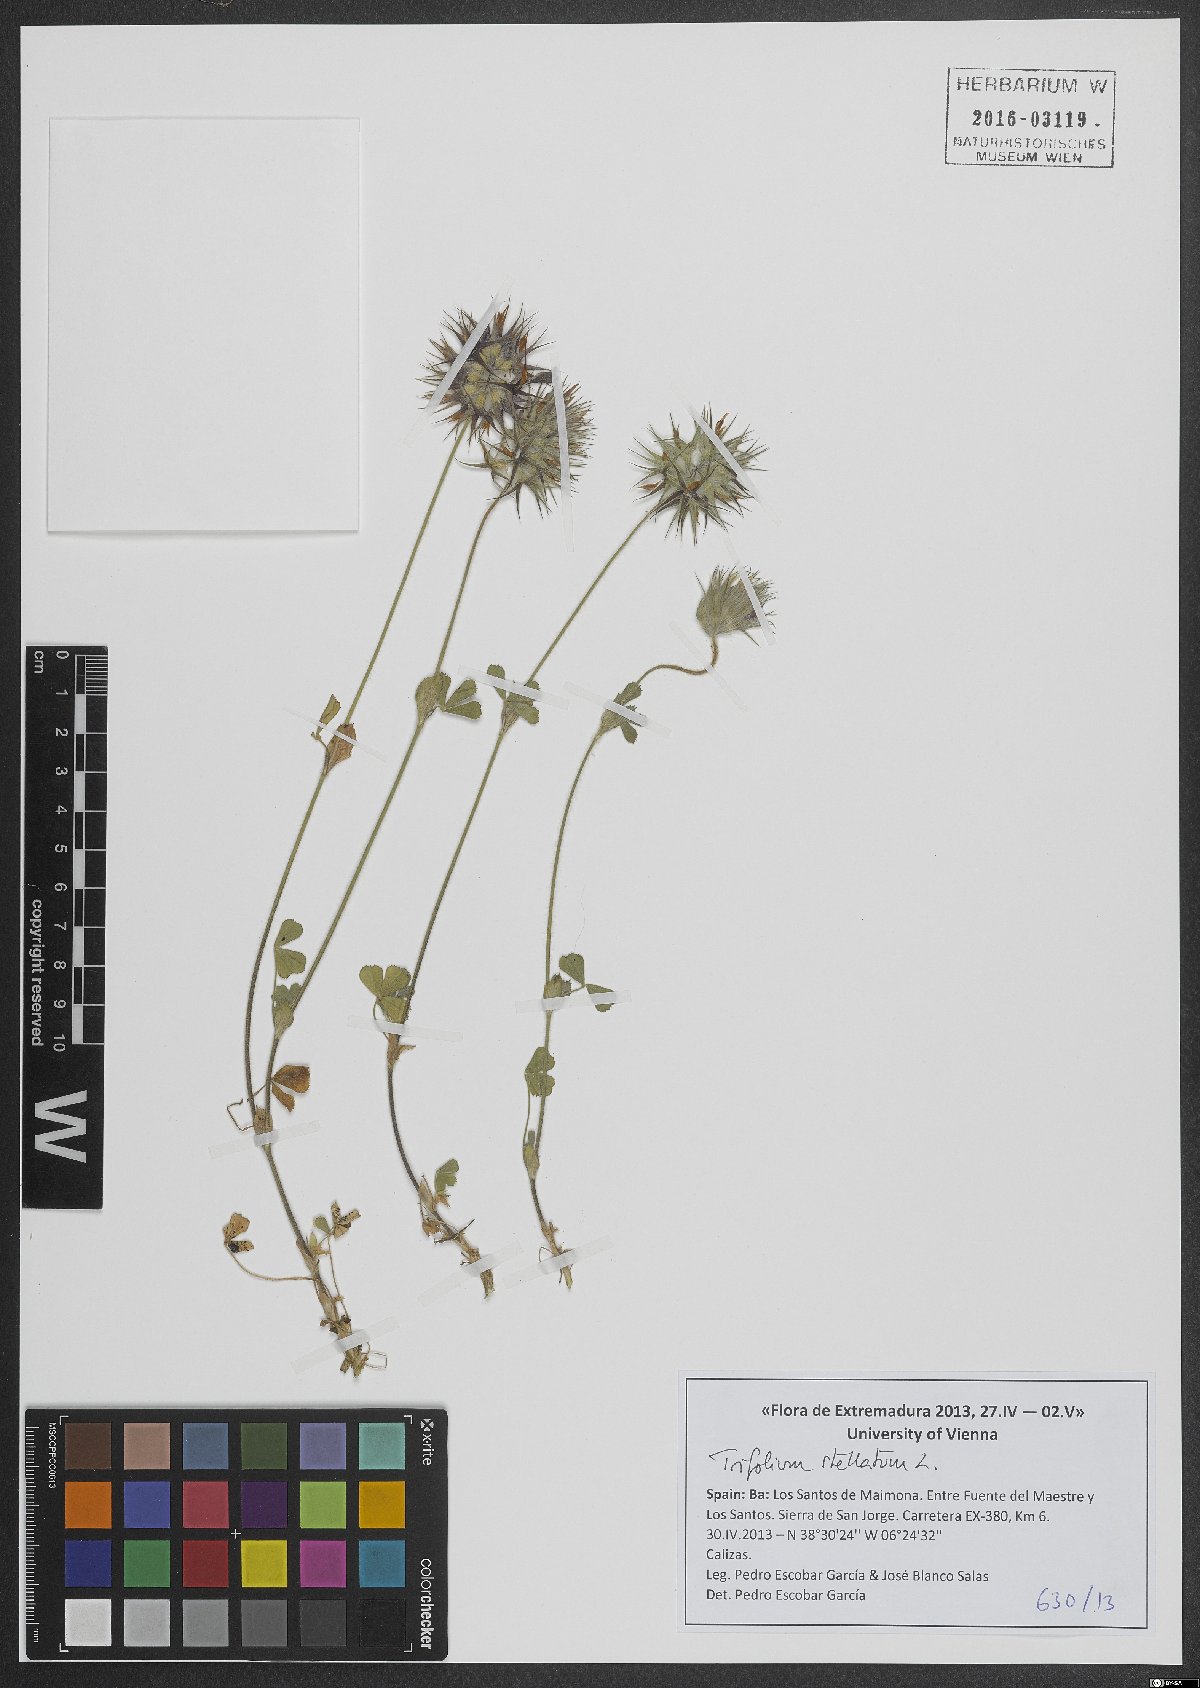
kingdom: Plantae
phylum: Tracheophyta
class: Magnoliopsida
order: Fabales
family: Fabaceae
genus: Trifolium
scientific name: Trifolium stellatum
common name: Starry clover
